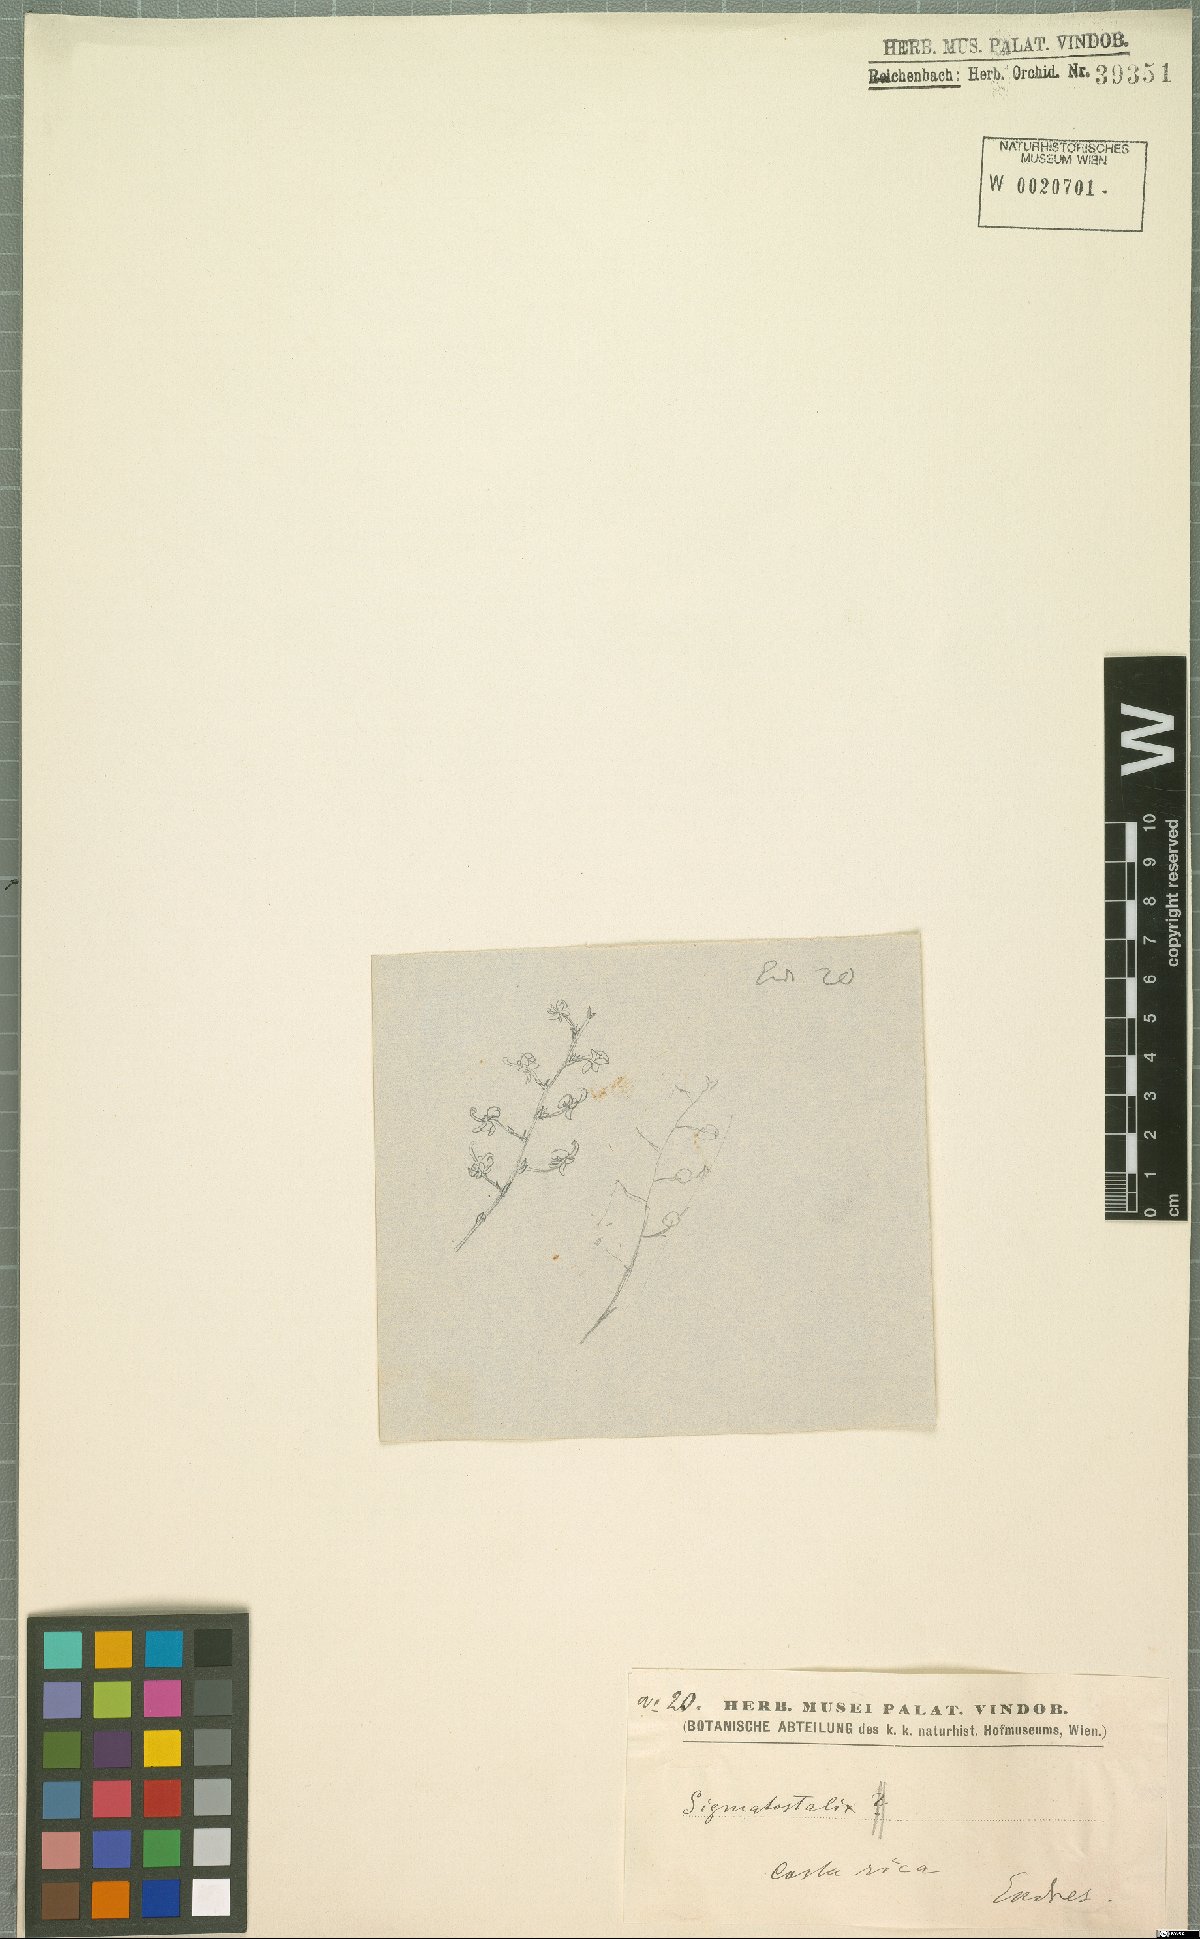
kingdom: Plantae
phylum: Tracheophyta
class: Liliopsida
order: Asparagales
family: Orchidaceae
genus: Oncidium
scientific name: Oncidium macrobulbon
